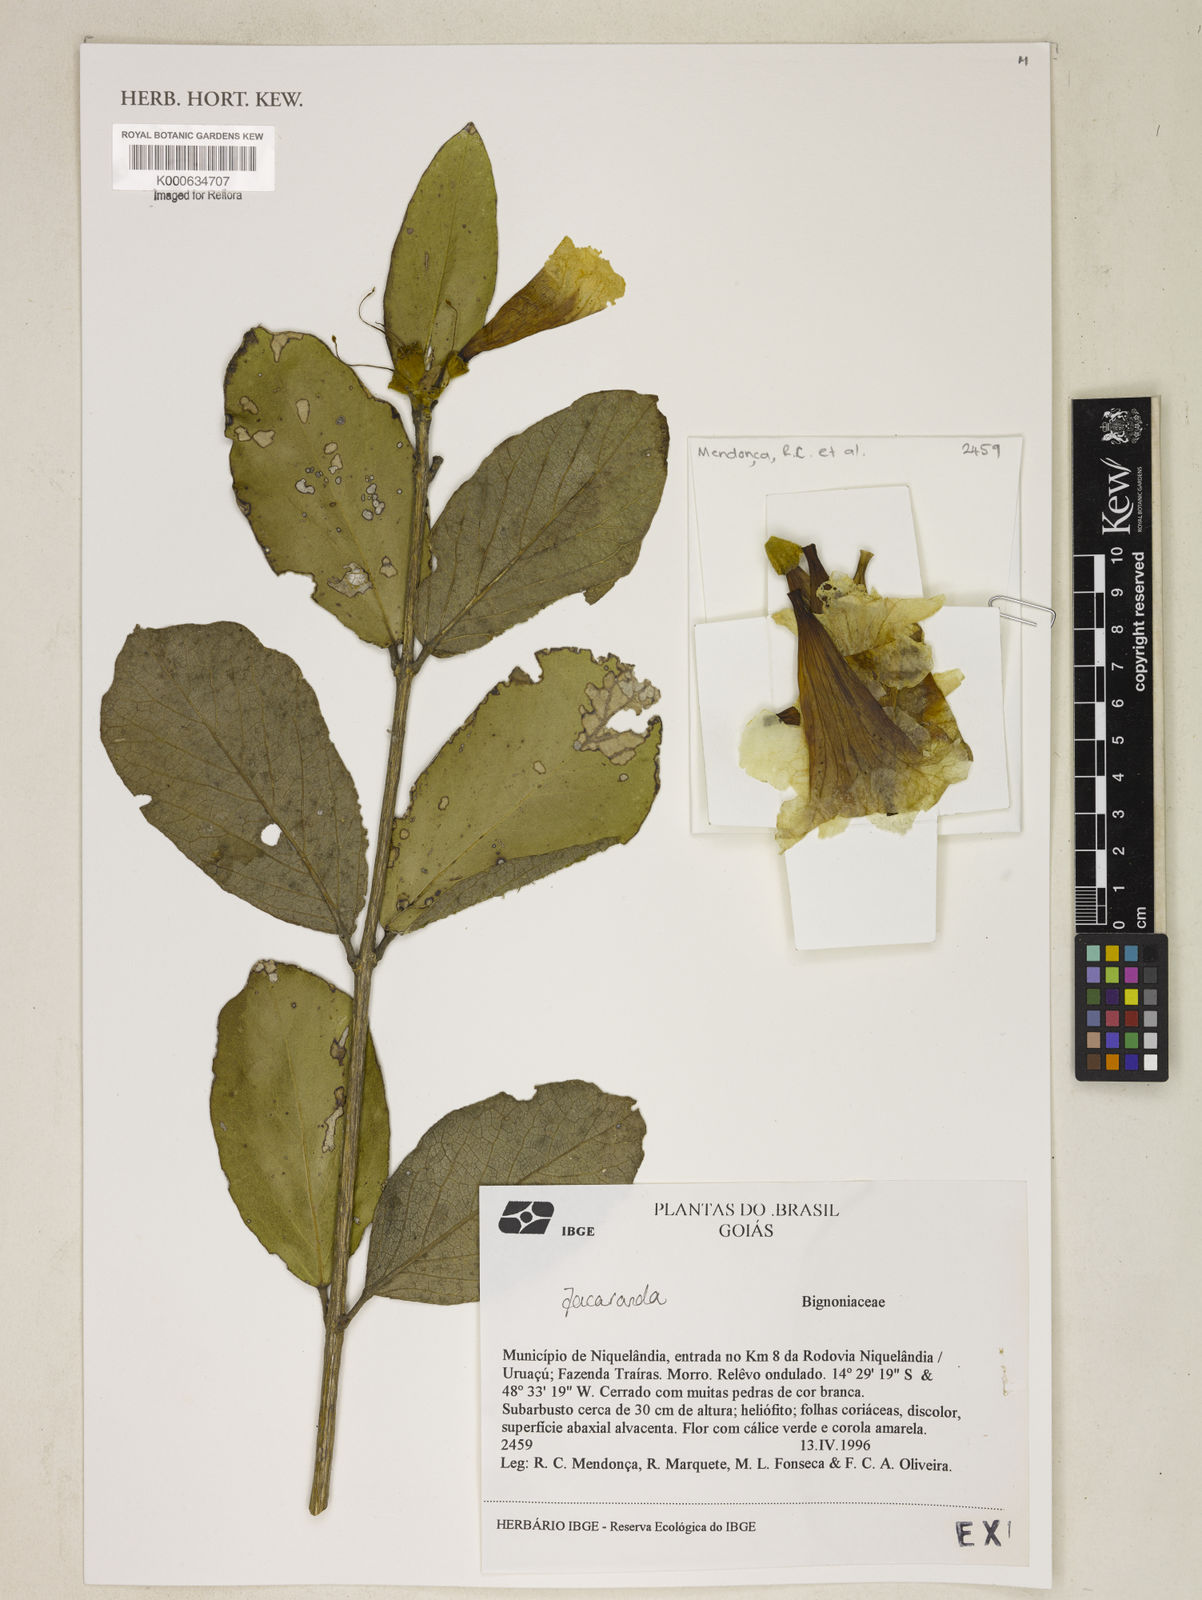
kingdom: Plantae
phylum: Tracheophyta
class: Magnoliopsida
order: Lamiales
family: Bignoniaceae
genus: Jacaranda
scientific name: Jacaranda
